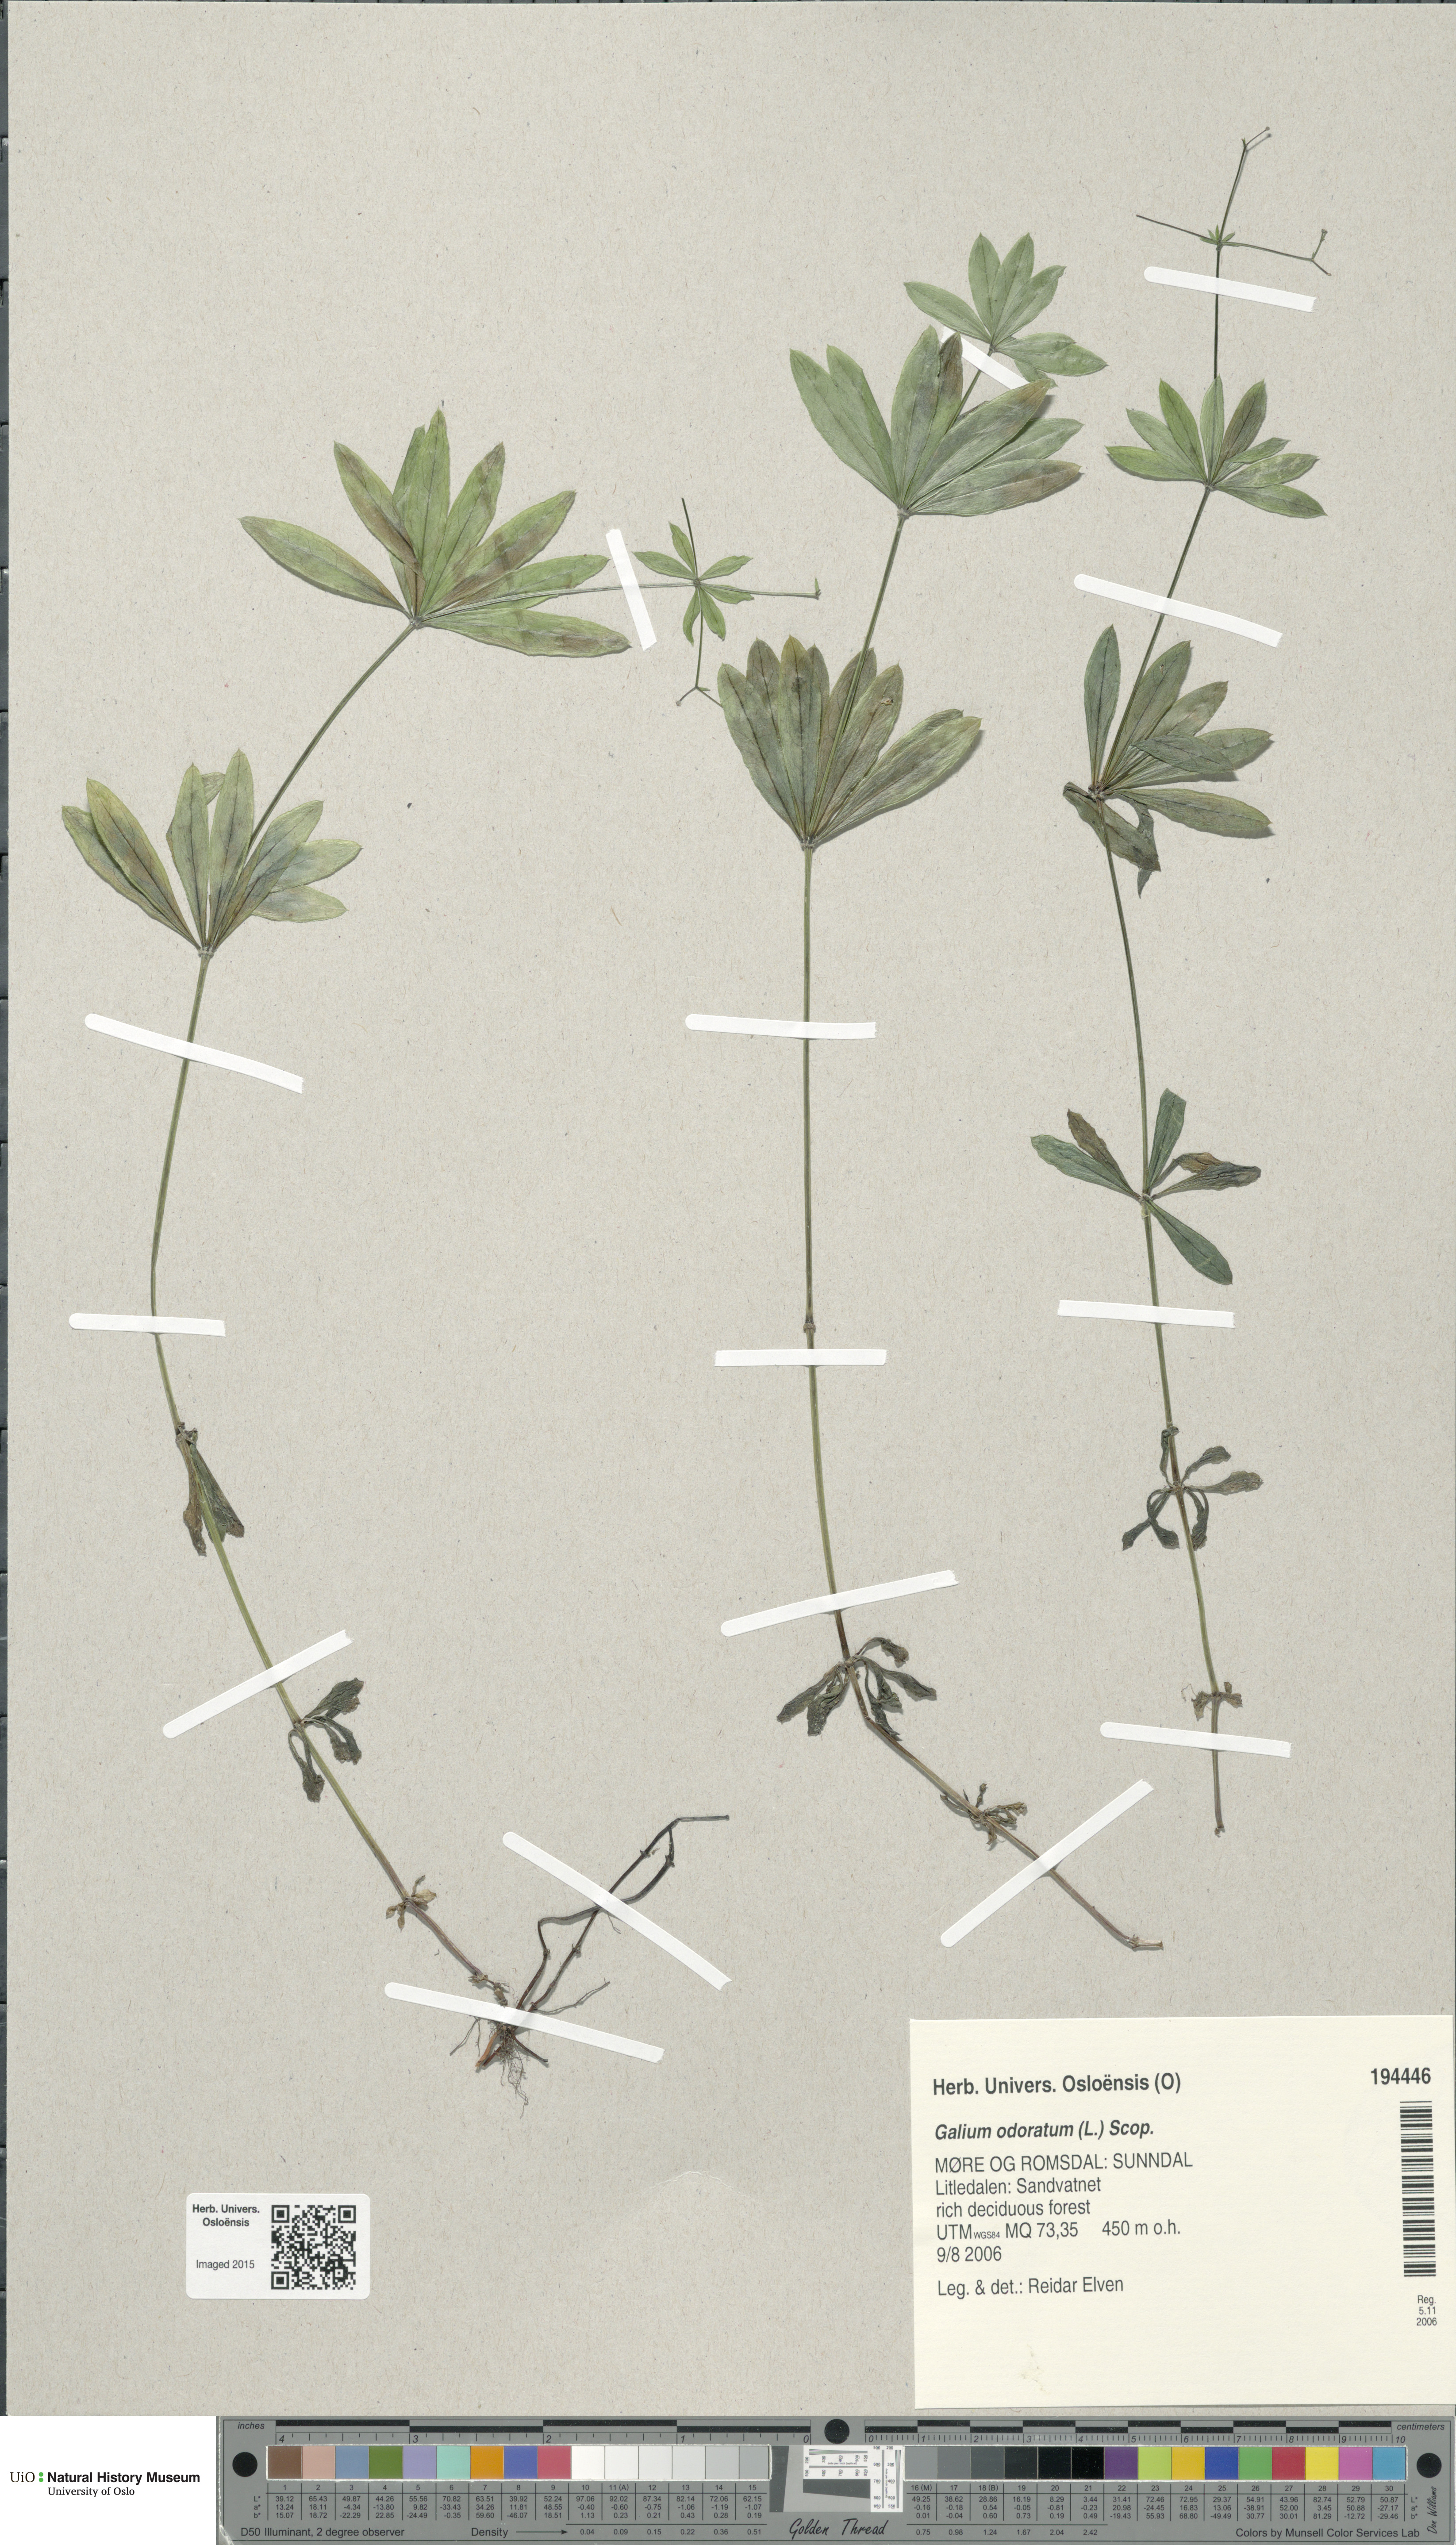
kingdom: Plantae
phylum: Tracheophyta
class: Magnoliopsida
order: Gentianales
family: Rubiaceae
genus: Galium
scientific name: Galium odoratum
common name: Sweet woodruff
